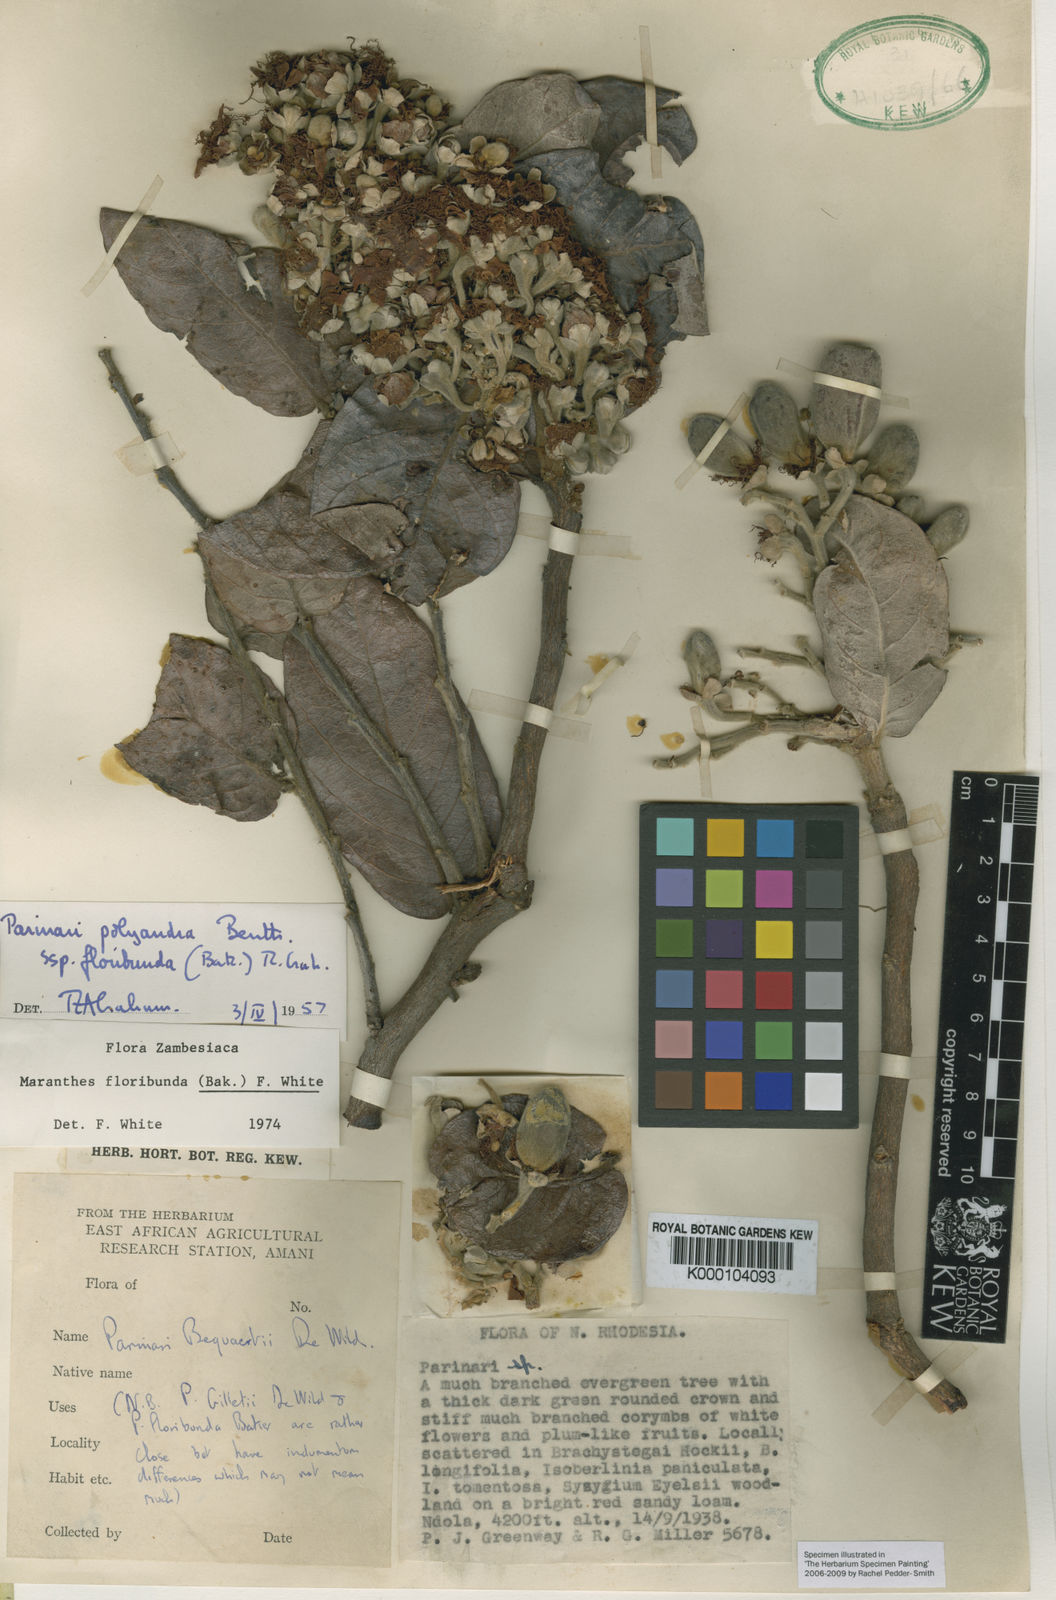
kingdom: Plantae
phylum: Tracheophyta
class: Magnoliopsida
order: Malpighiales
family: Chrysobalanaceae
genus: Maranthes
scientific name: Maranthes floribunda
